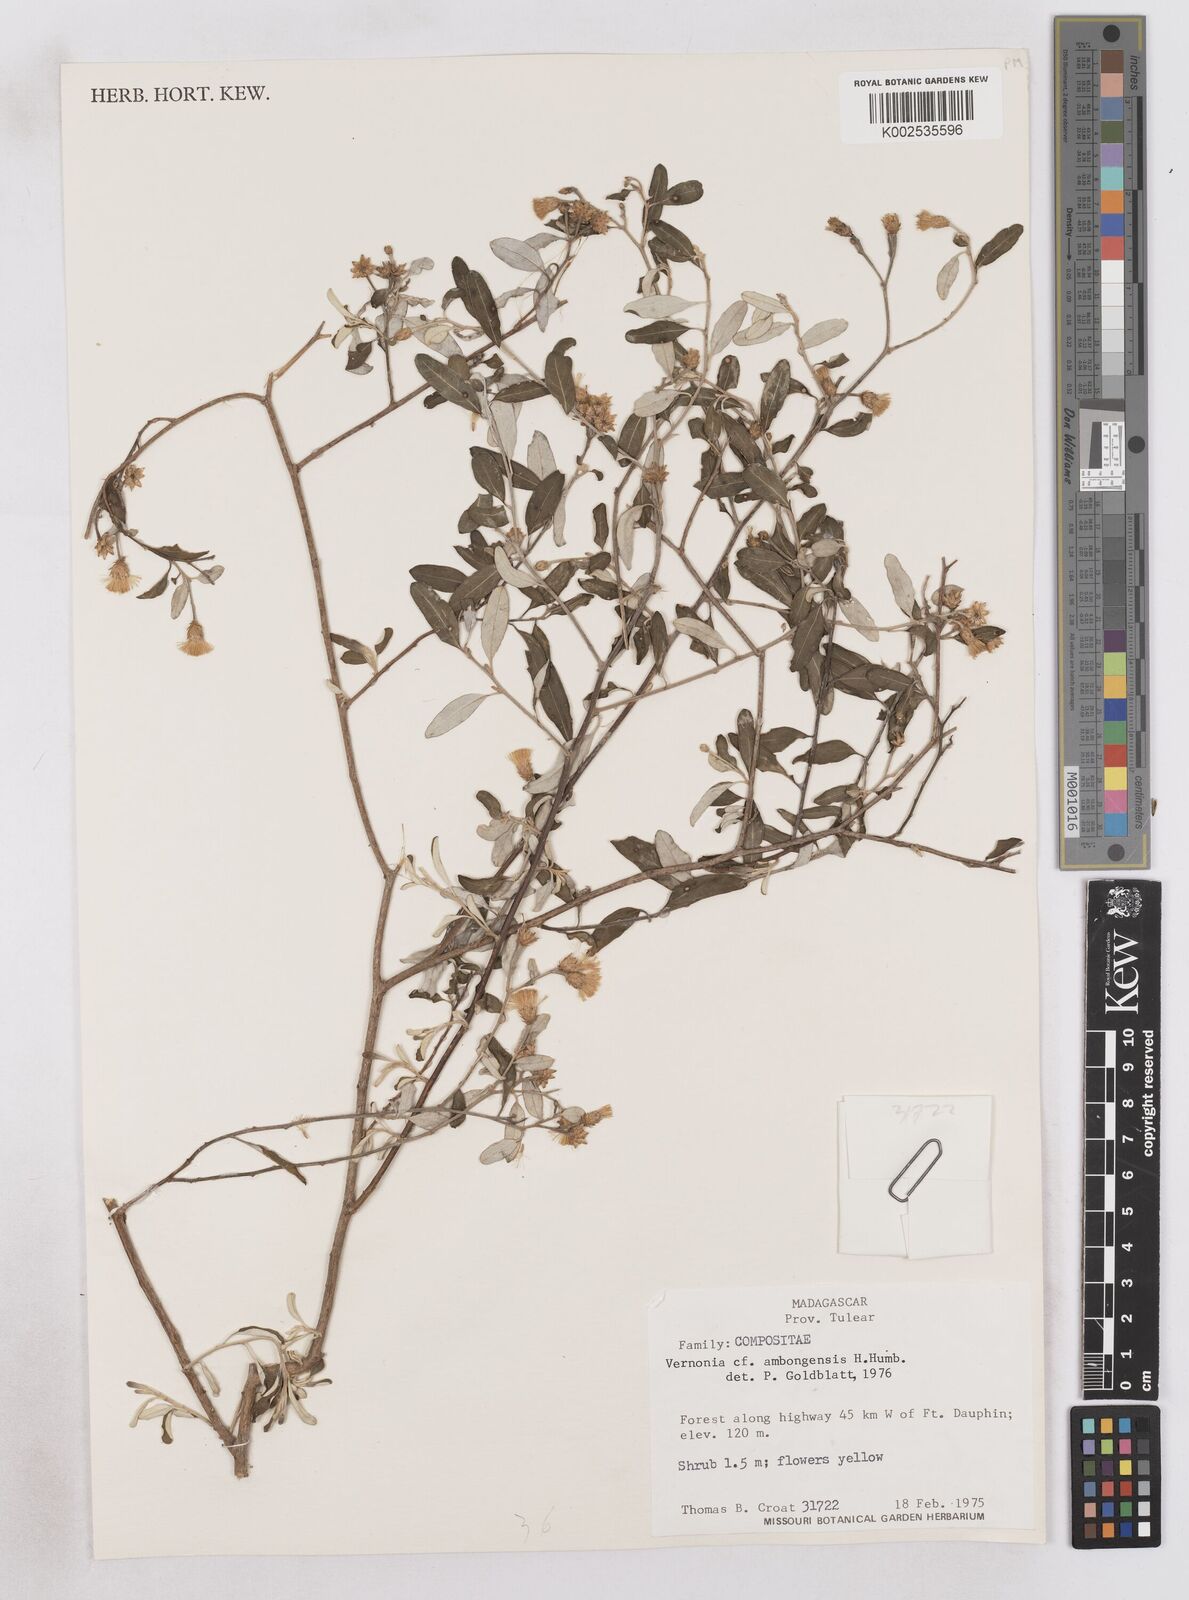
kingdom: Plantae
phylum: Tracheophyta
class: Magnoliopsida
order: Asterales
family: Asteraceae
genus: Distephanus
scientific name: Distephanus ambongensis
